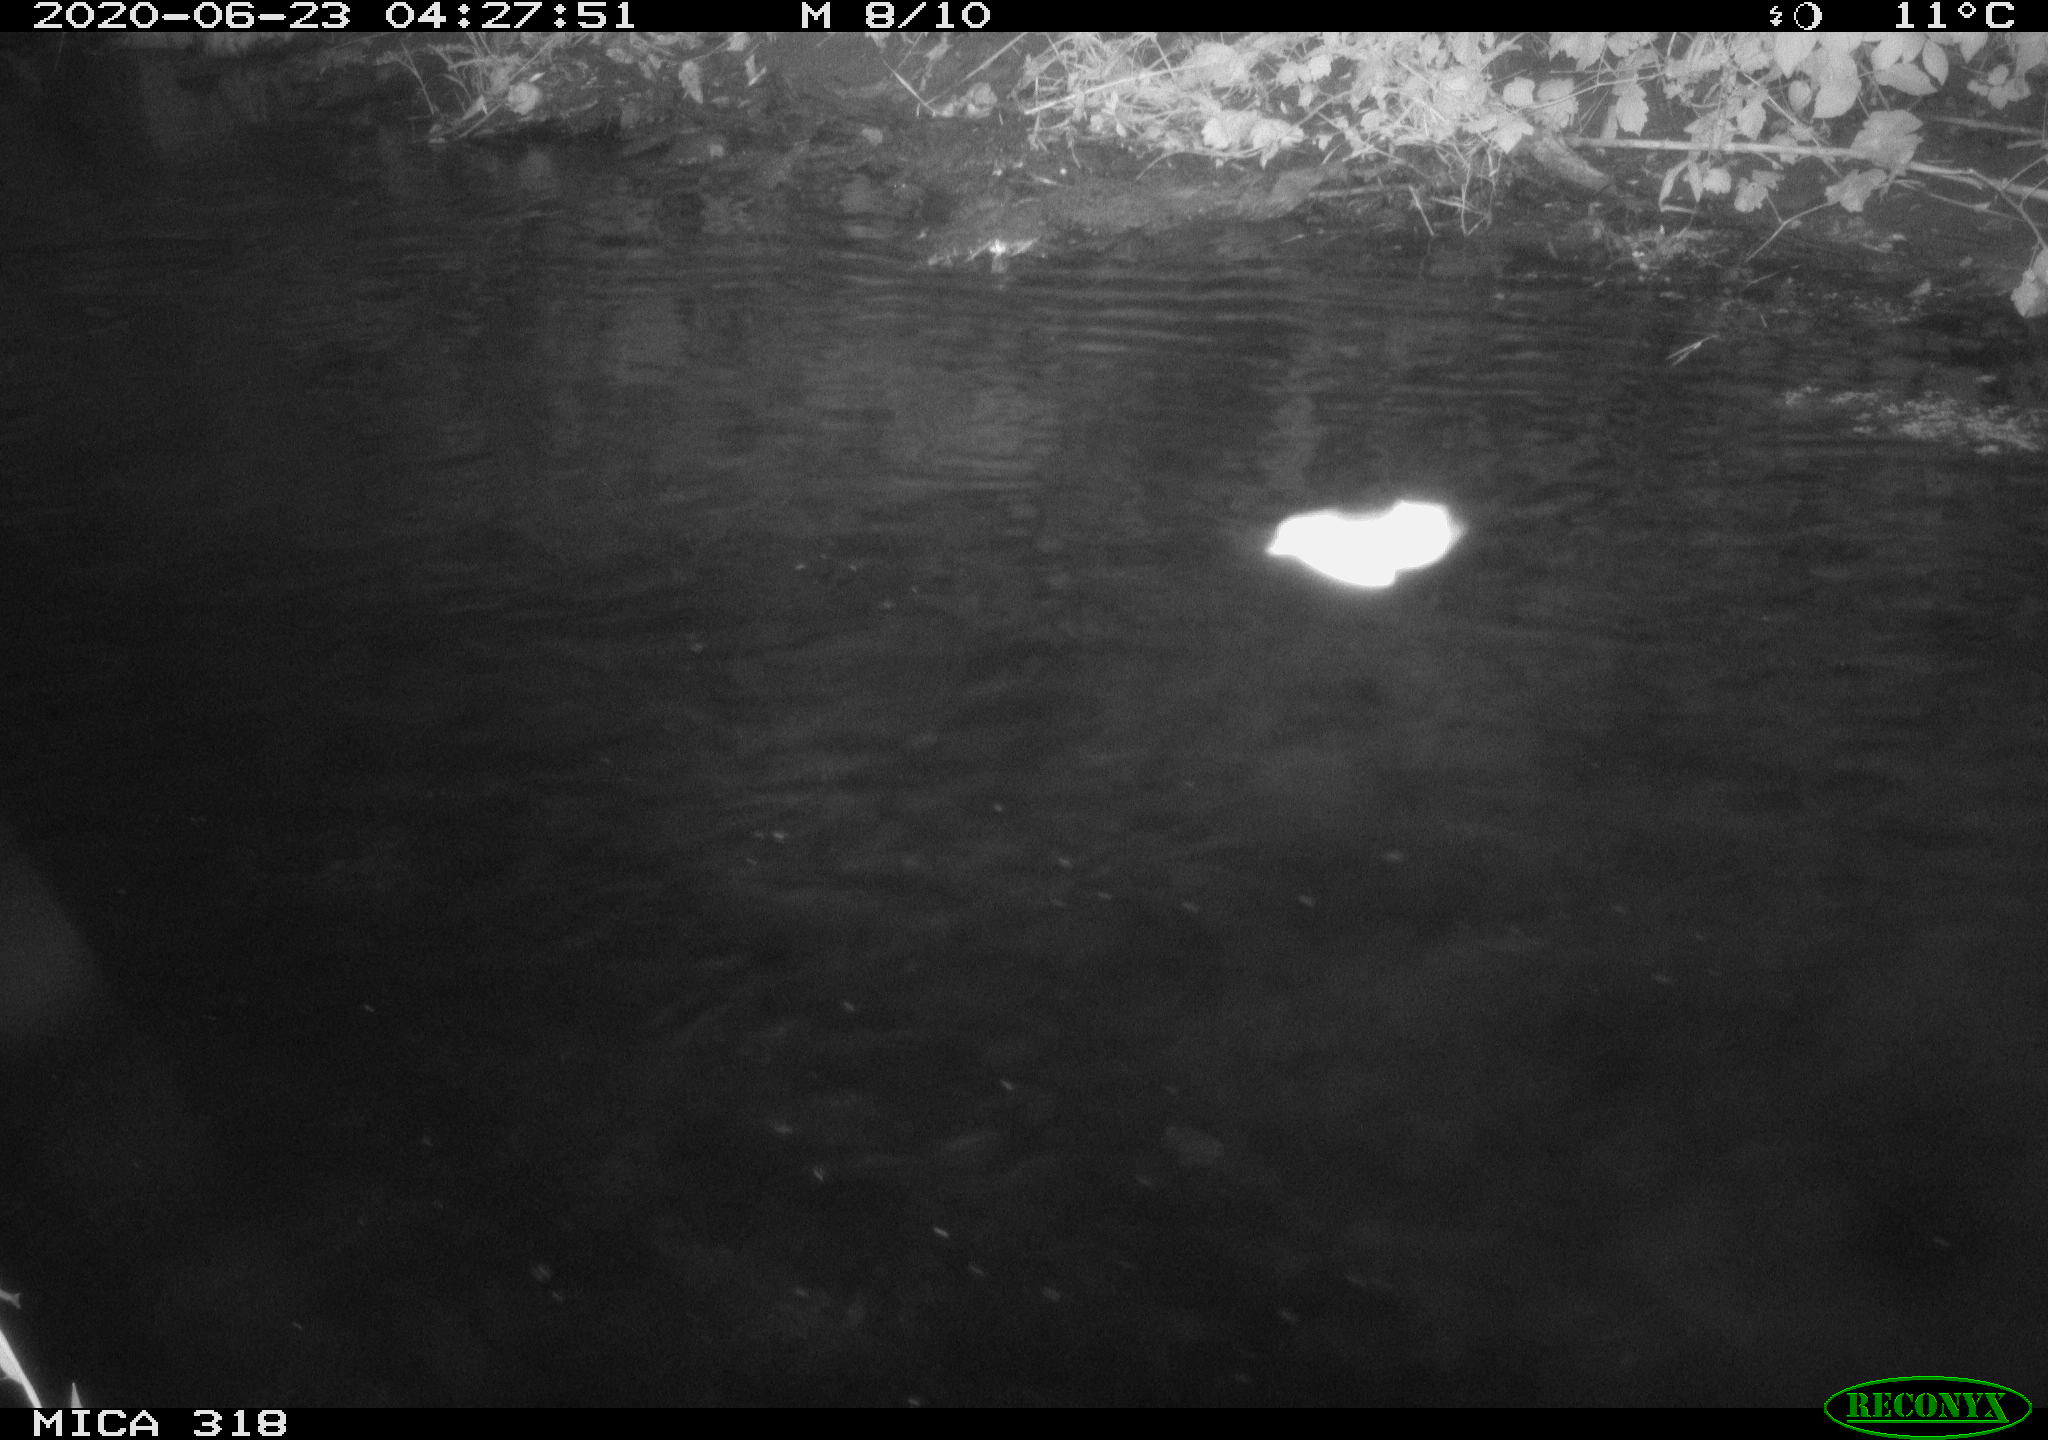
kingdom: Animalia
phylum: Chordata
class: Aves
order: Anseriformes
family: Anatidae
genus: Anas
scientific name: Anas platyrhynchos
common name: Mallard
